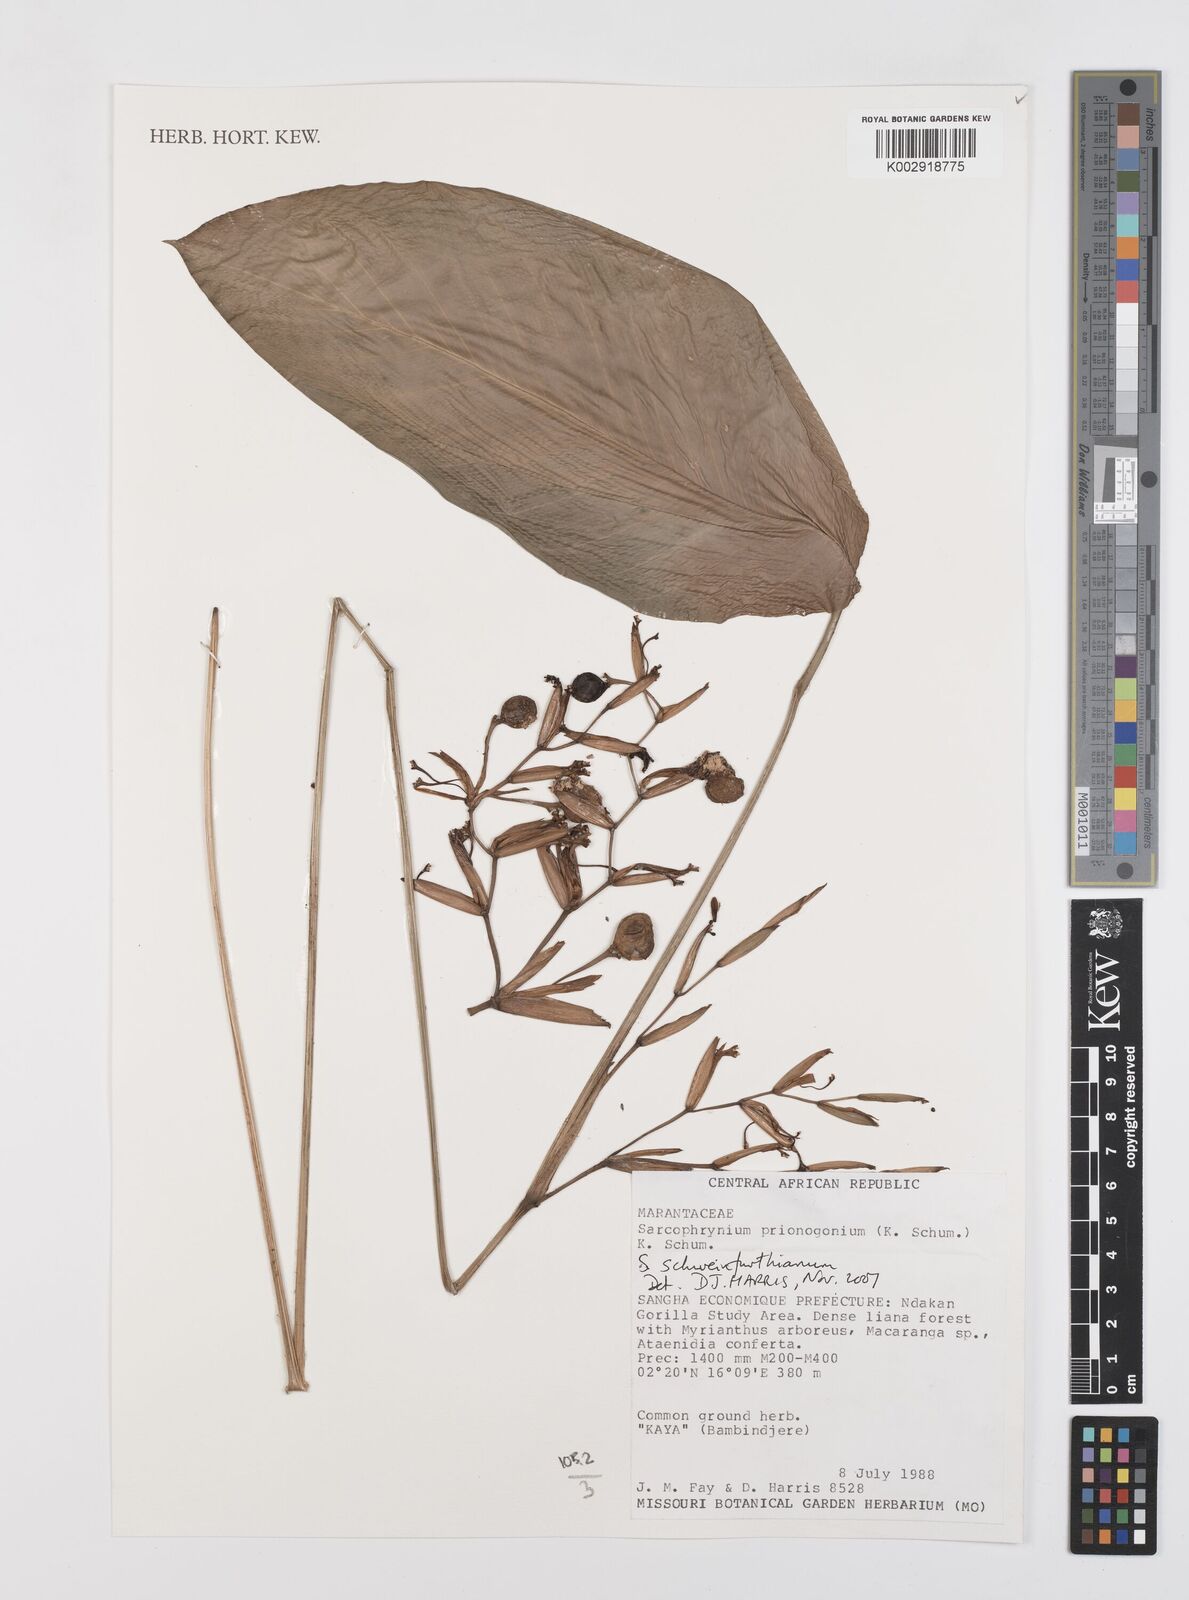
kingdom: Plantae
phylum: Tracheophyta
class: Liliopsida
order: Zingiberales
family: Marantaceae
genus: Sarcophrynium
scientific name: Sarcophrynium schweinfurthianum
